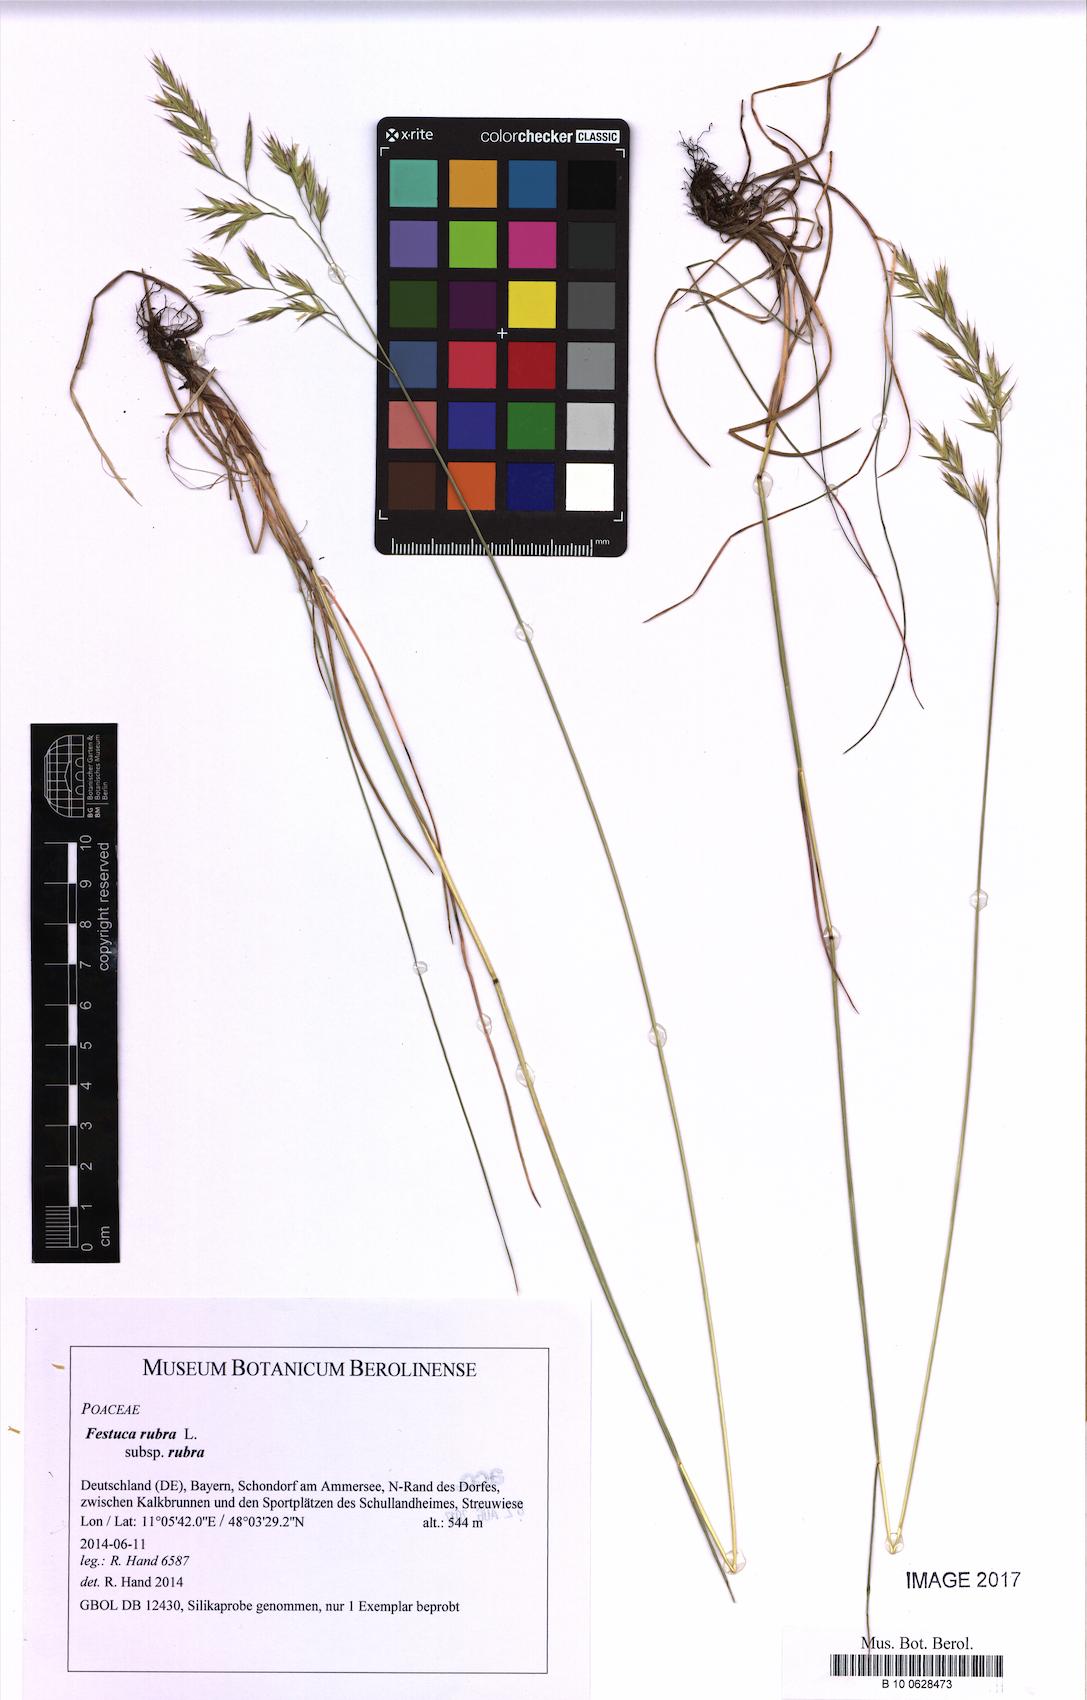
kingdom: Plantae
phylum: Tracheophyta
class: Liliopsida
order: Poales
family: Poaceae
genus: Festuca
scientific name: Festuca rubra
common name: Red fescue
